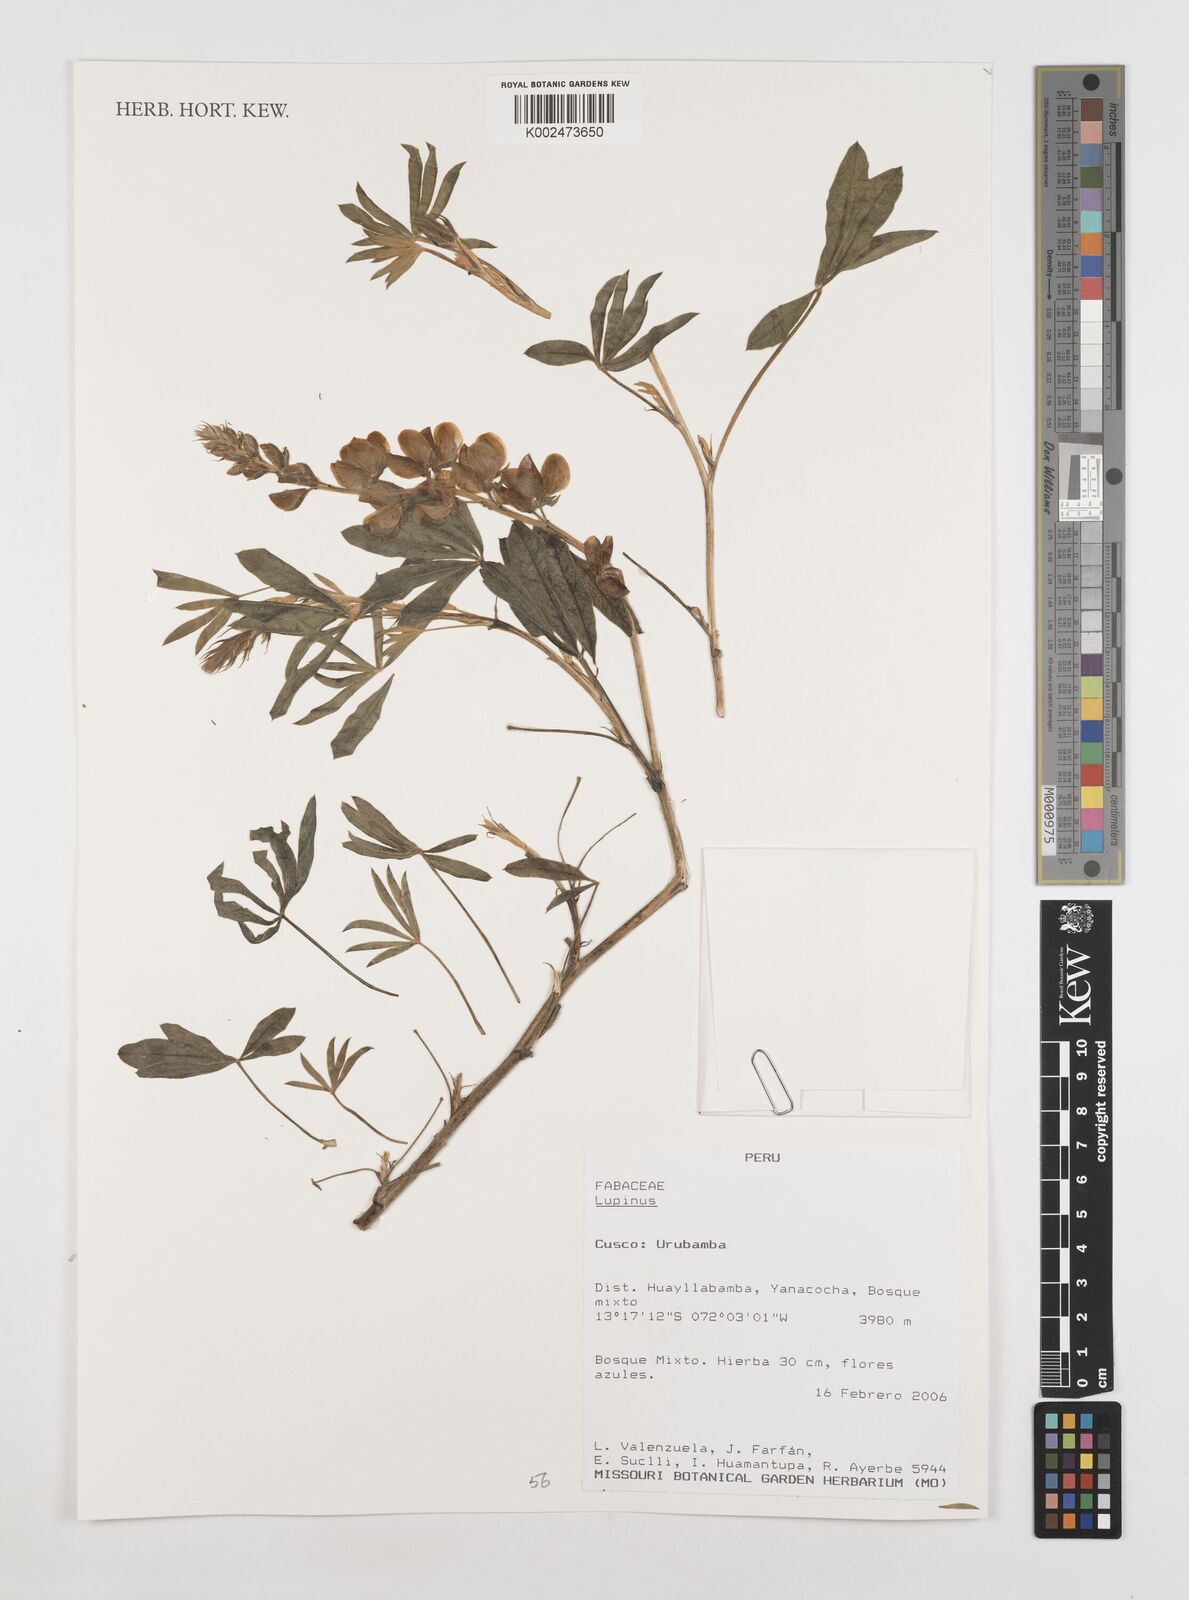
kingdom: Plantae
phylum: Tracheophyta
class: Magnoliopsida
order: Fabales
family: Fabaceae
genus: Lupinus
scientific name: Lupinus
